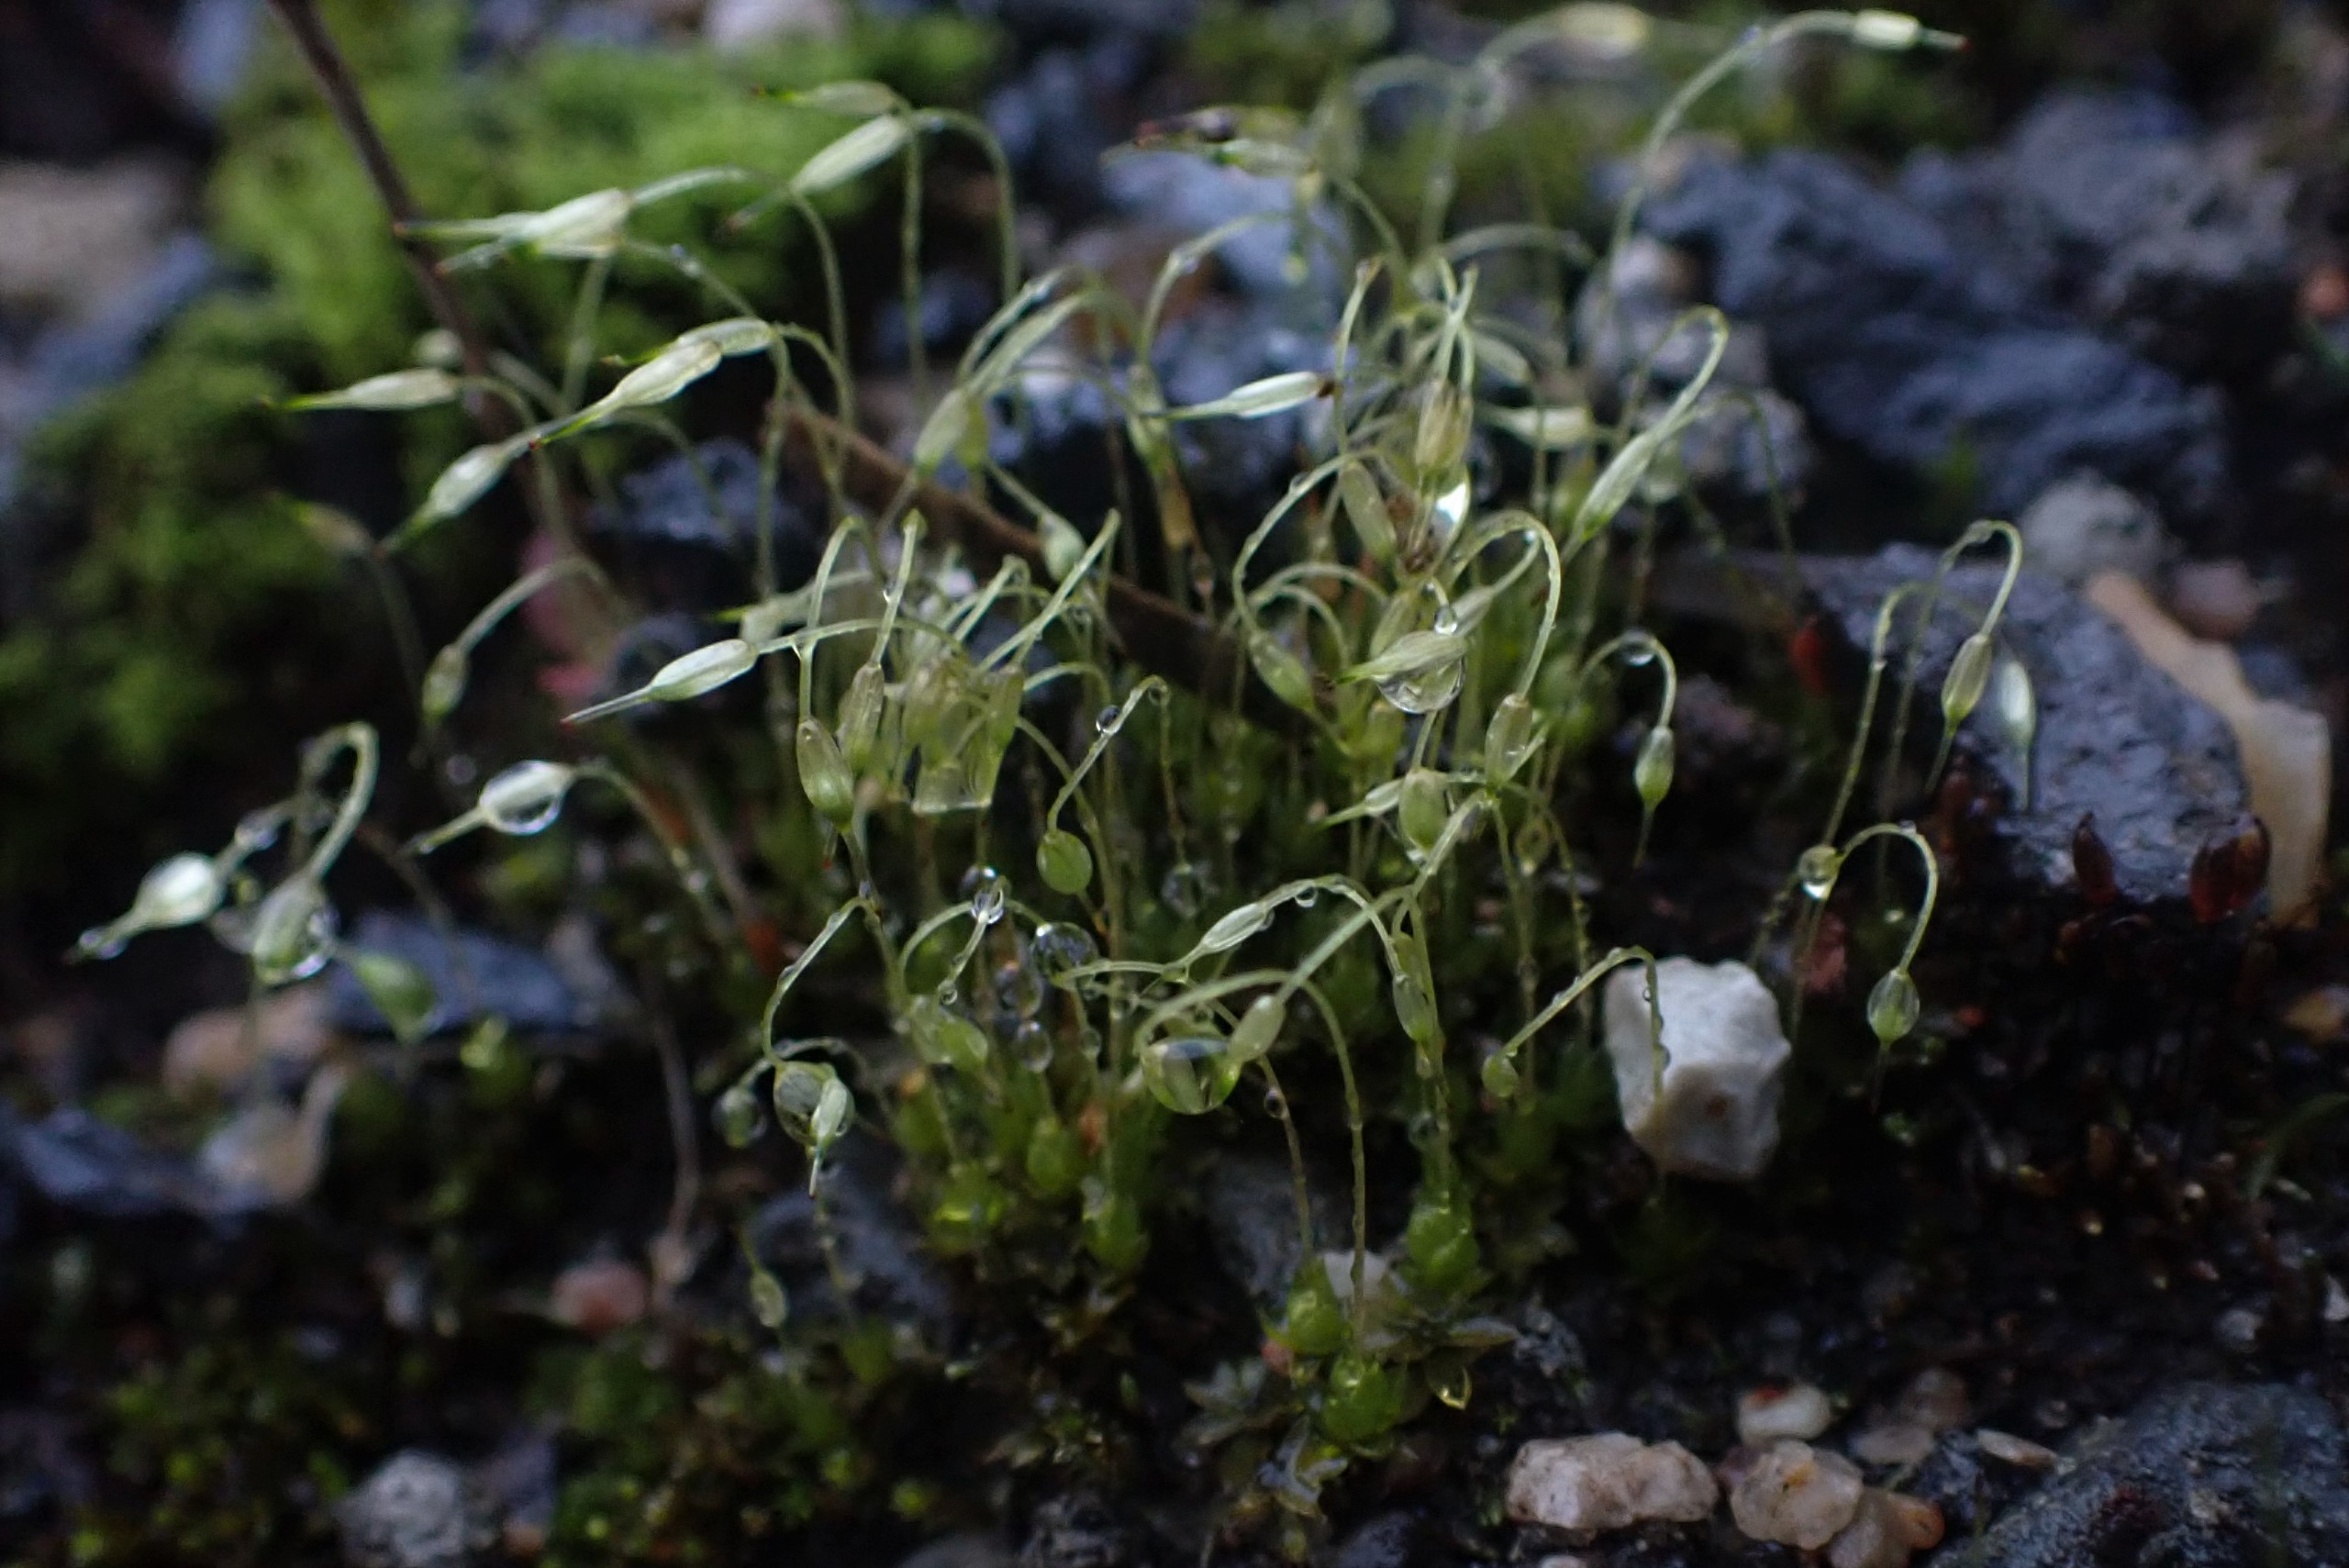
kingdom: Plantae
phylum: Bryophyta
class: Bryopsida
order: Funariales
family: Funariaceae
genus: Funaria
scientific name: Funaria hygrometrica
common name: Almindelig snobørste
